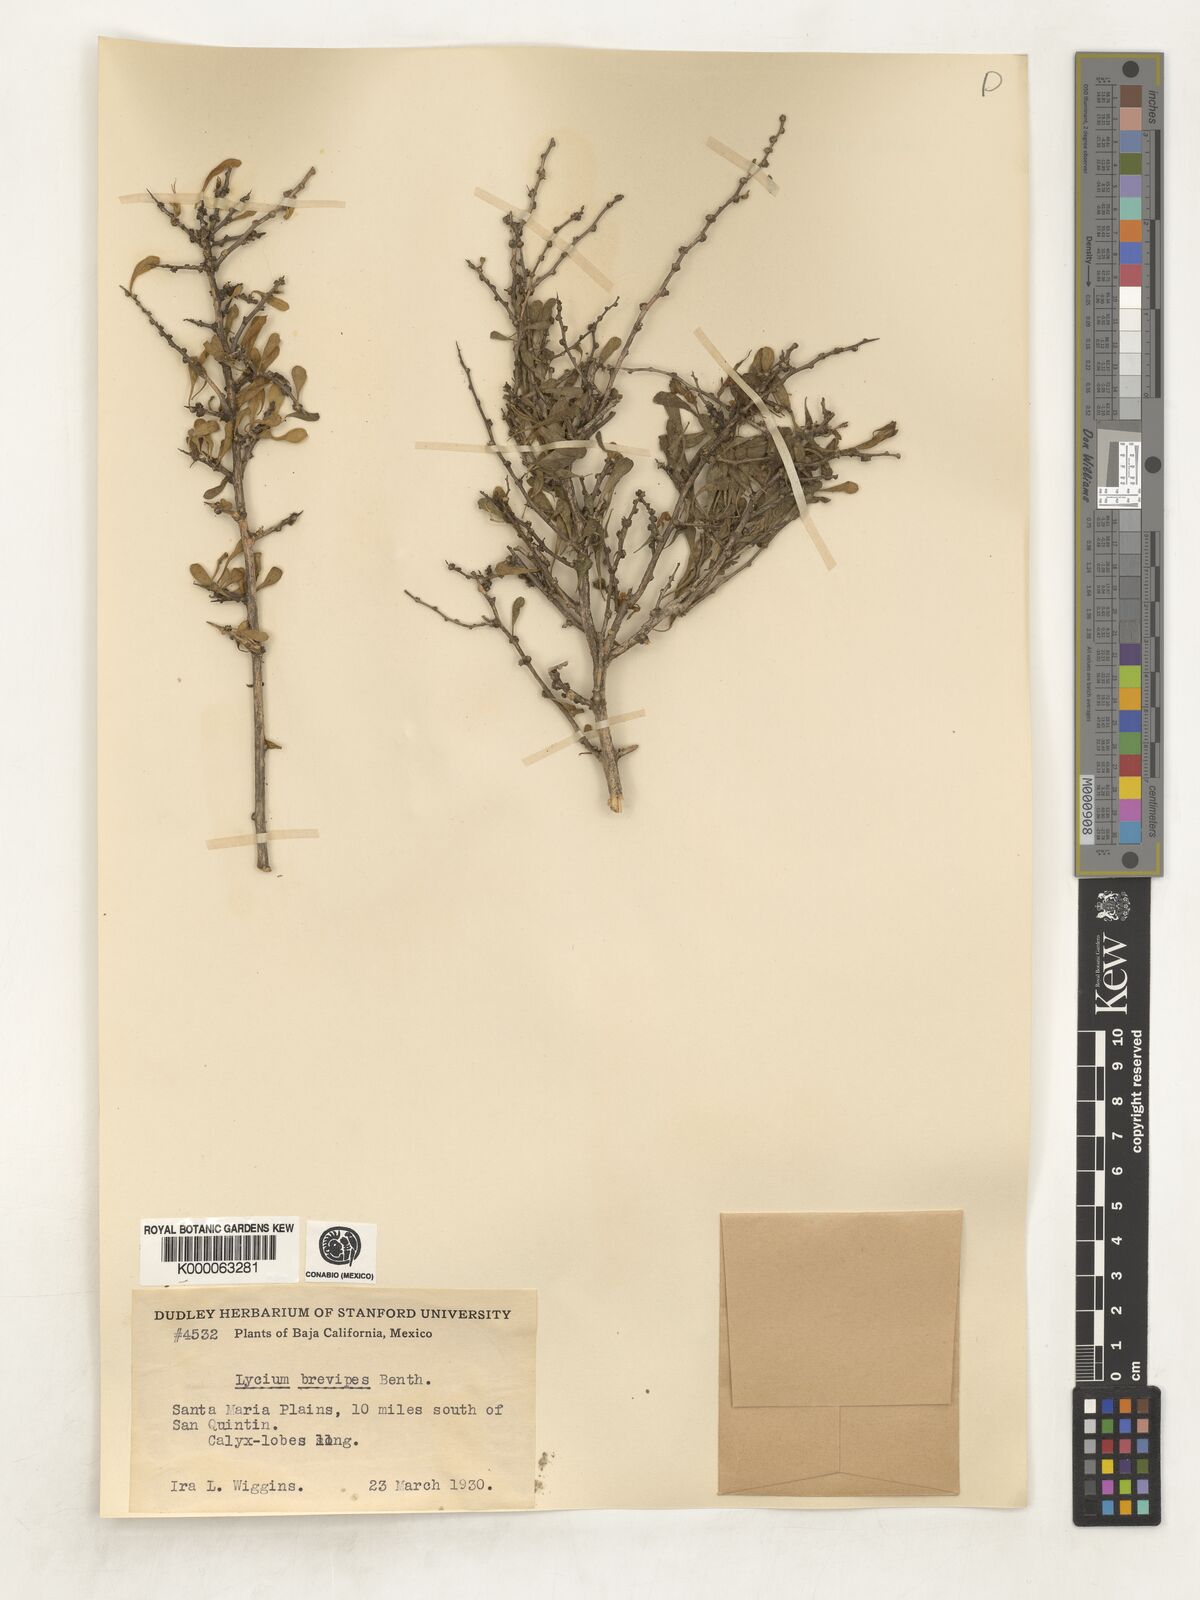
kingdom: Plantae
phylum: Tracheophyta
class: Magnoliopsida
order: Solanales
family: Solanaceae
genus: Lycium
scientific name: Lycium brevipes
